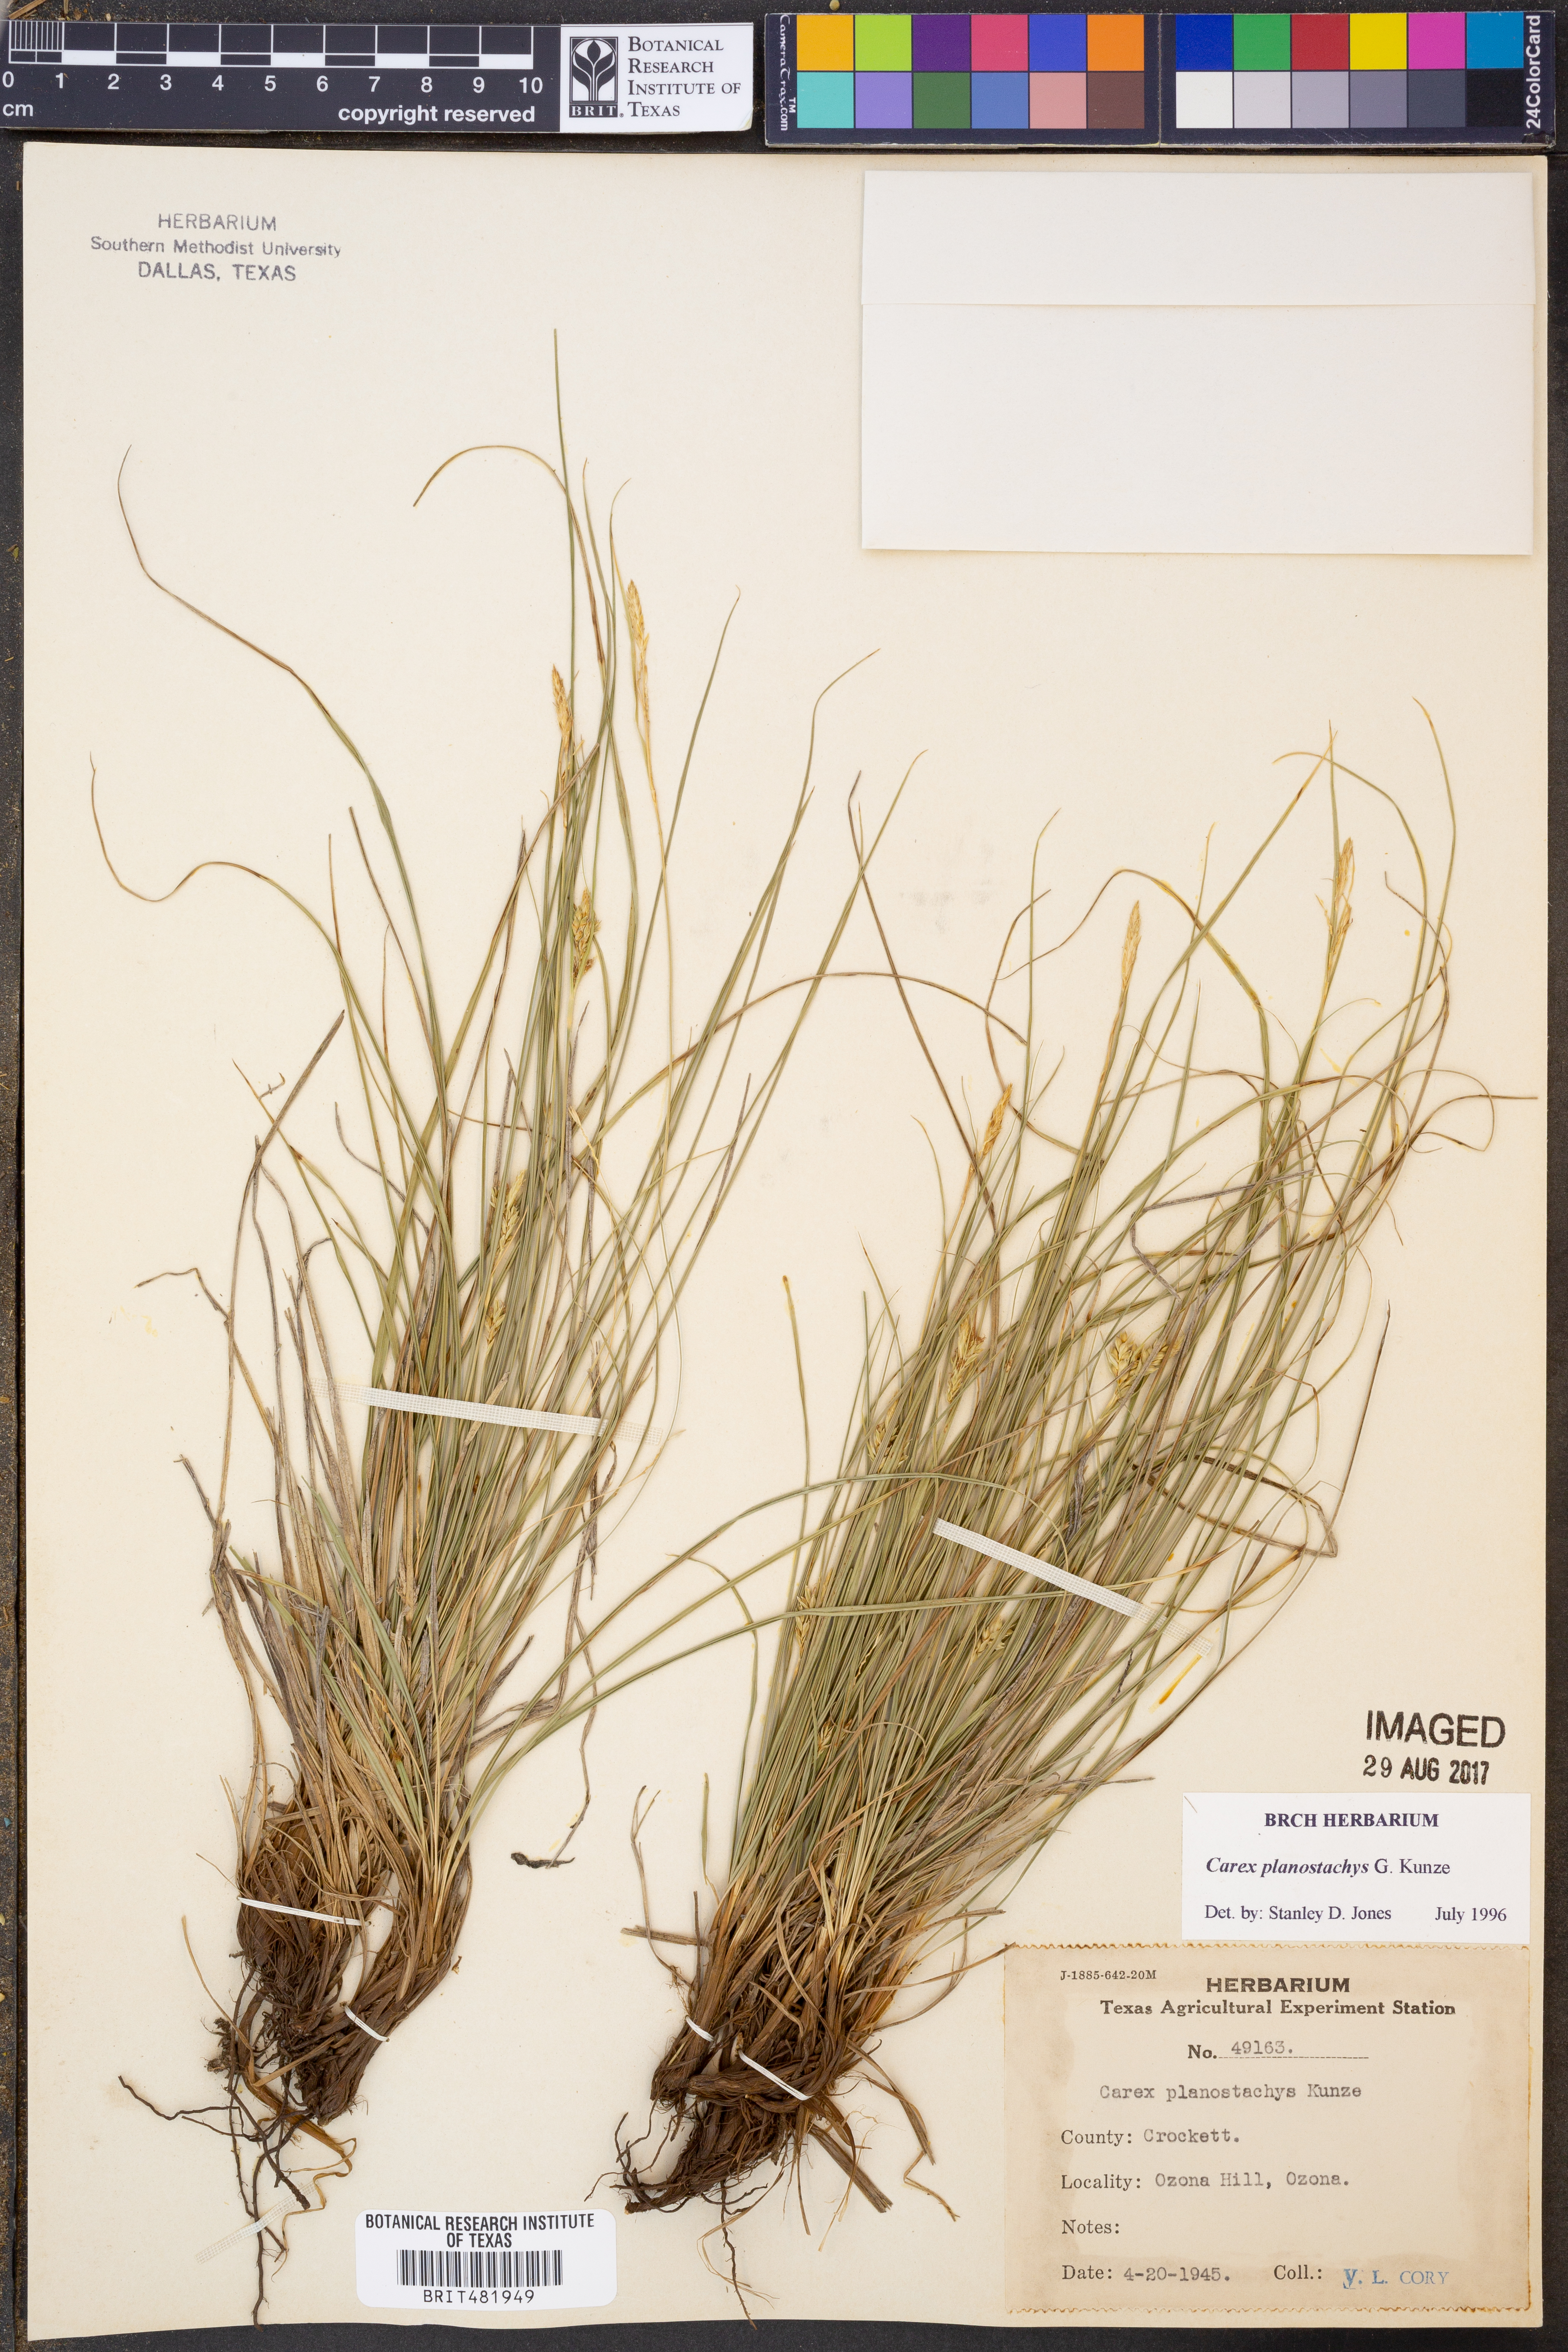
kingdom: Plantae
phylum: Tracheophyta
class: Liliopsida
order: Poales
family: Cyperaceae
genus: Carex
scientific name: Carex planostachys
